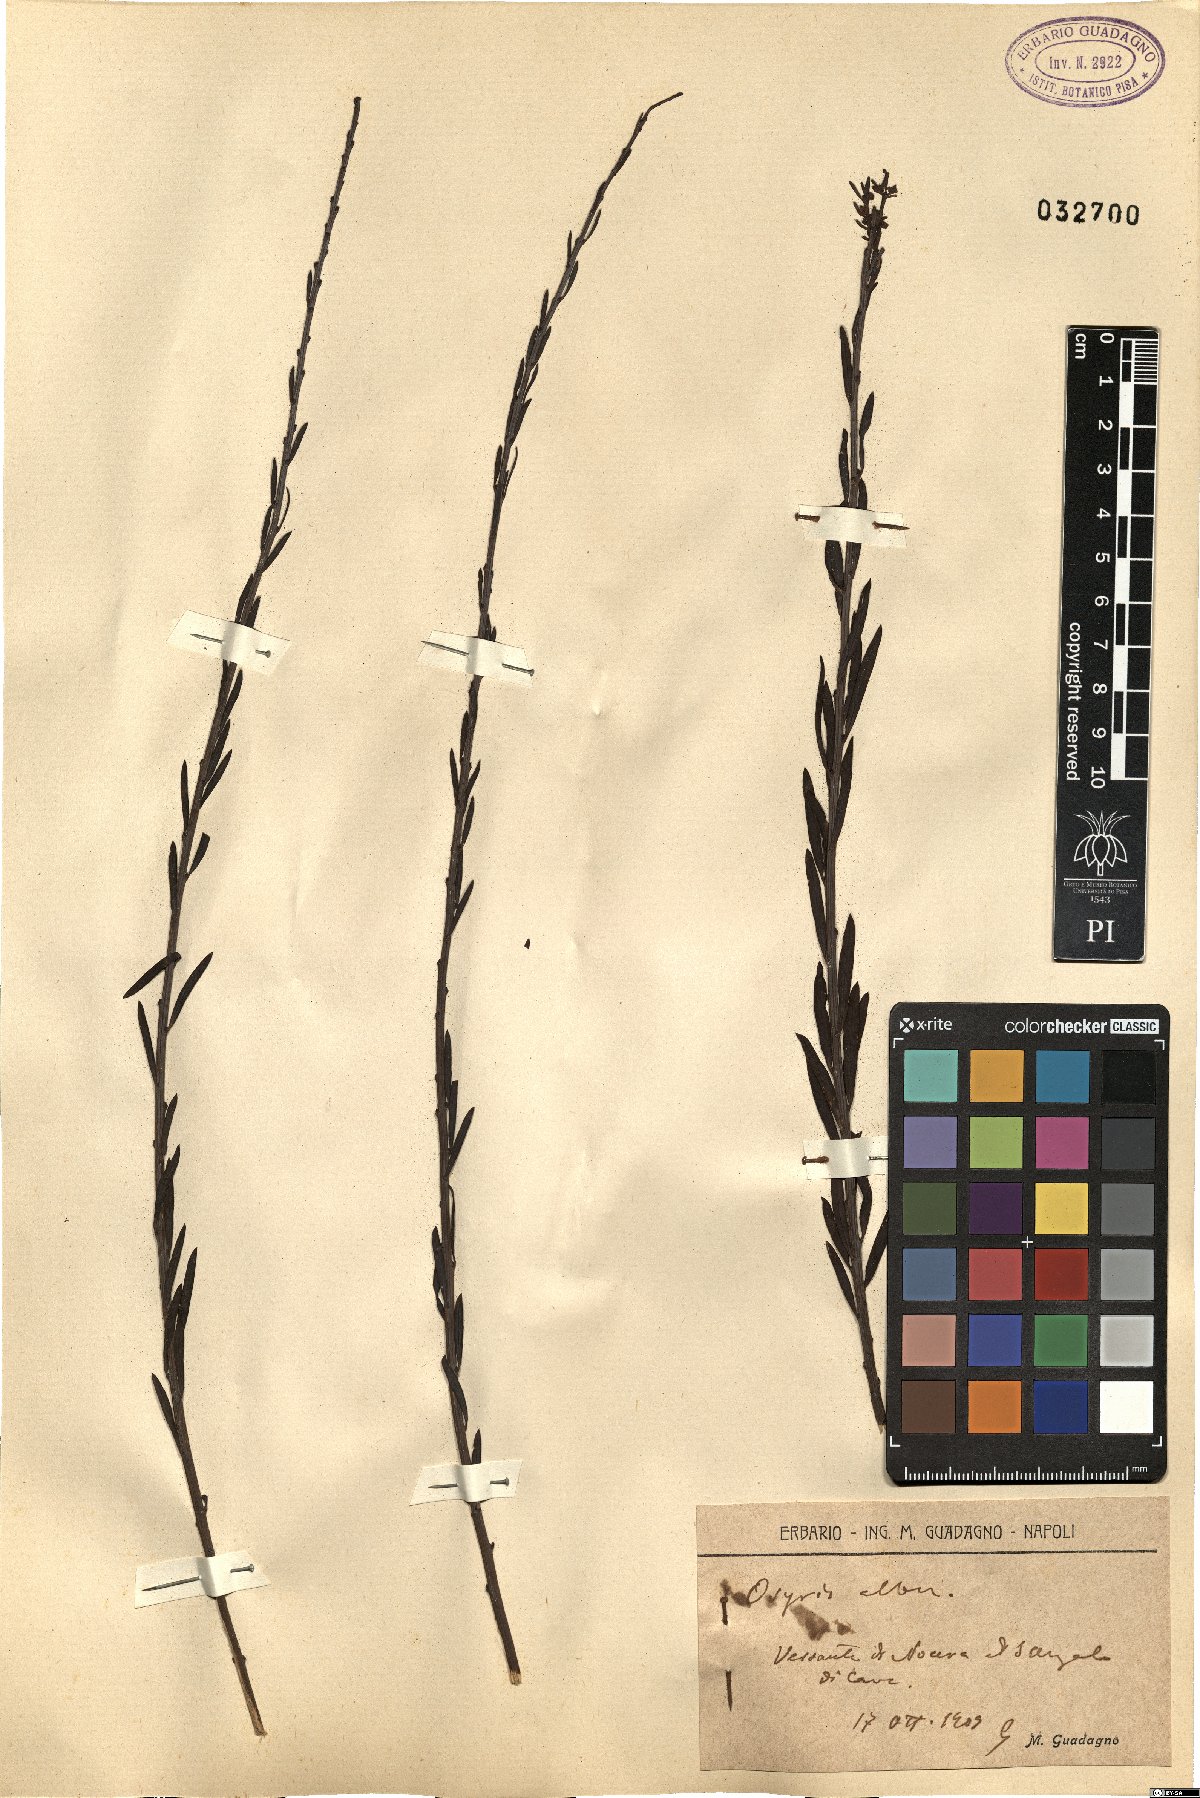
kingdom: Plantae
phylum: Tracheophyta
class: Magnoliopsida
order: Santalales
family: Santalaceae
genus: Osyris
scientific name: Osyris alba
